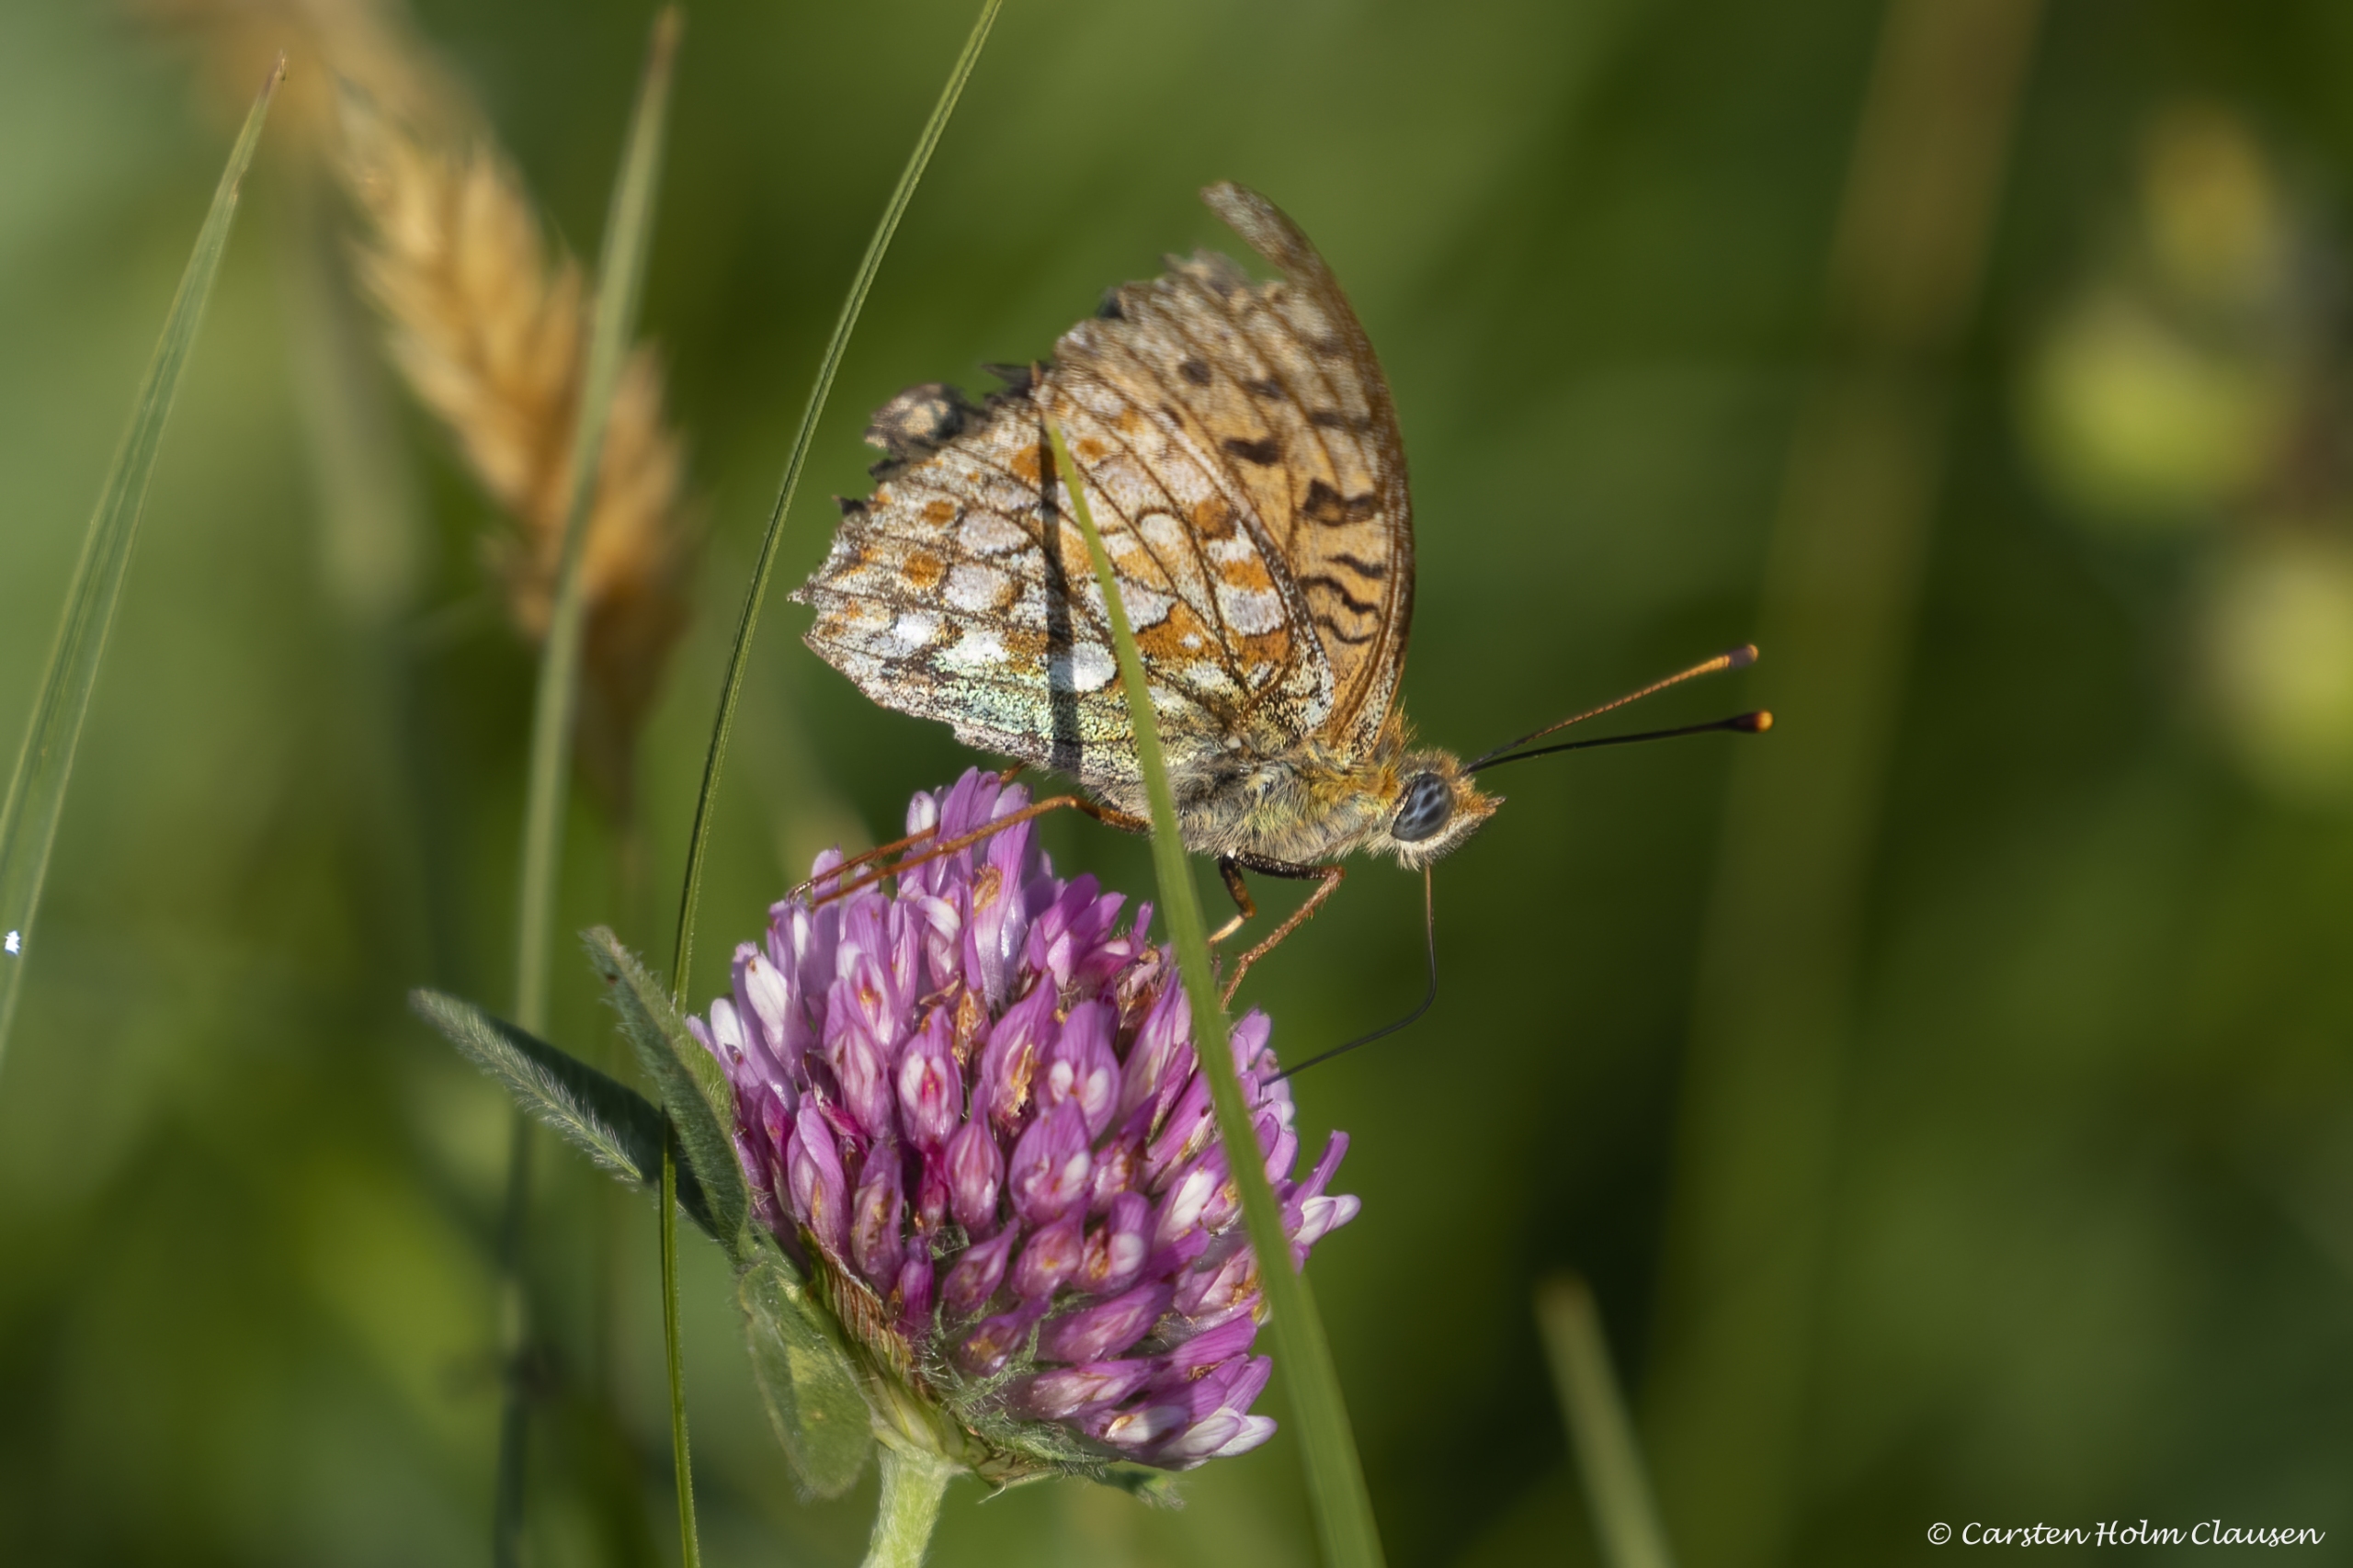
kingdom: Animalia
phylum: Arthropoda
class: Insecta
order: Lepidoptera
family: Nymphalidae
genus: Fabriciana
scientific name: Fabriciana adippe
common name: Skovperlemorsommerfugl
